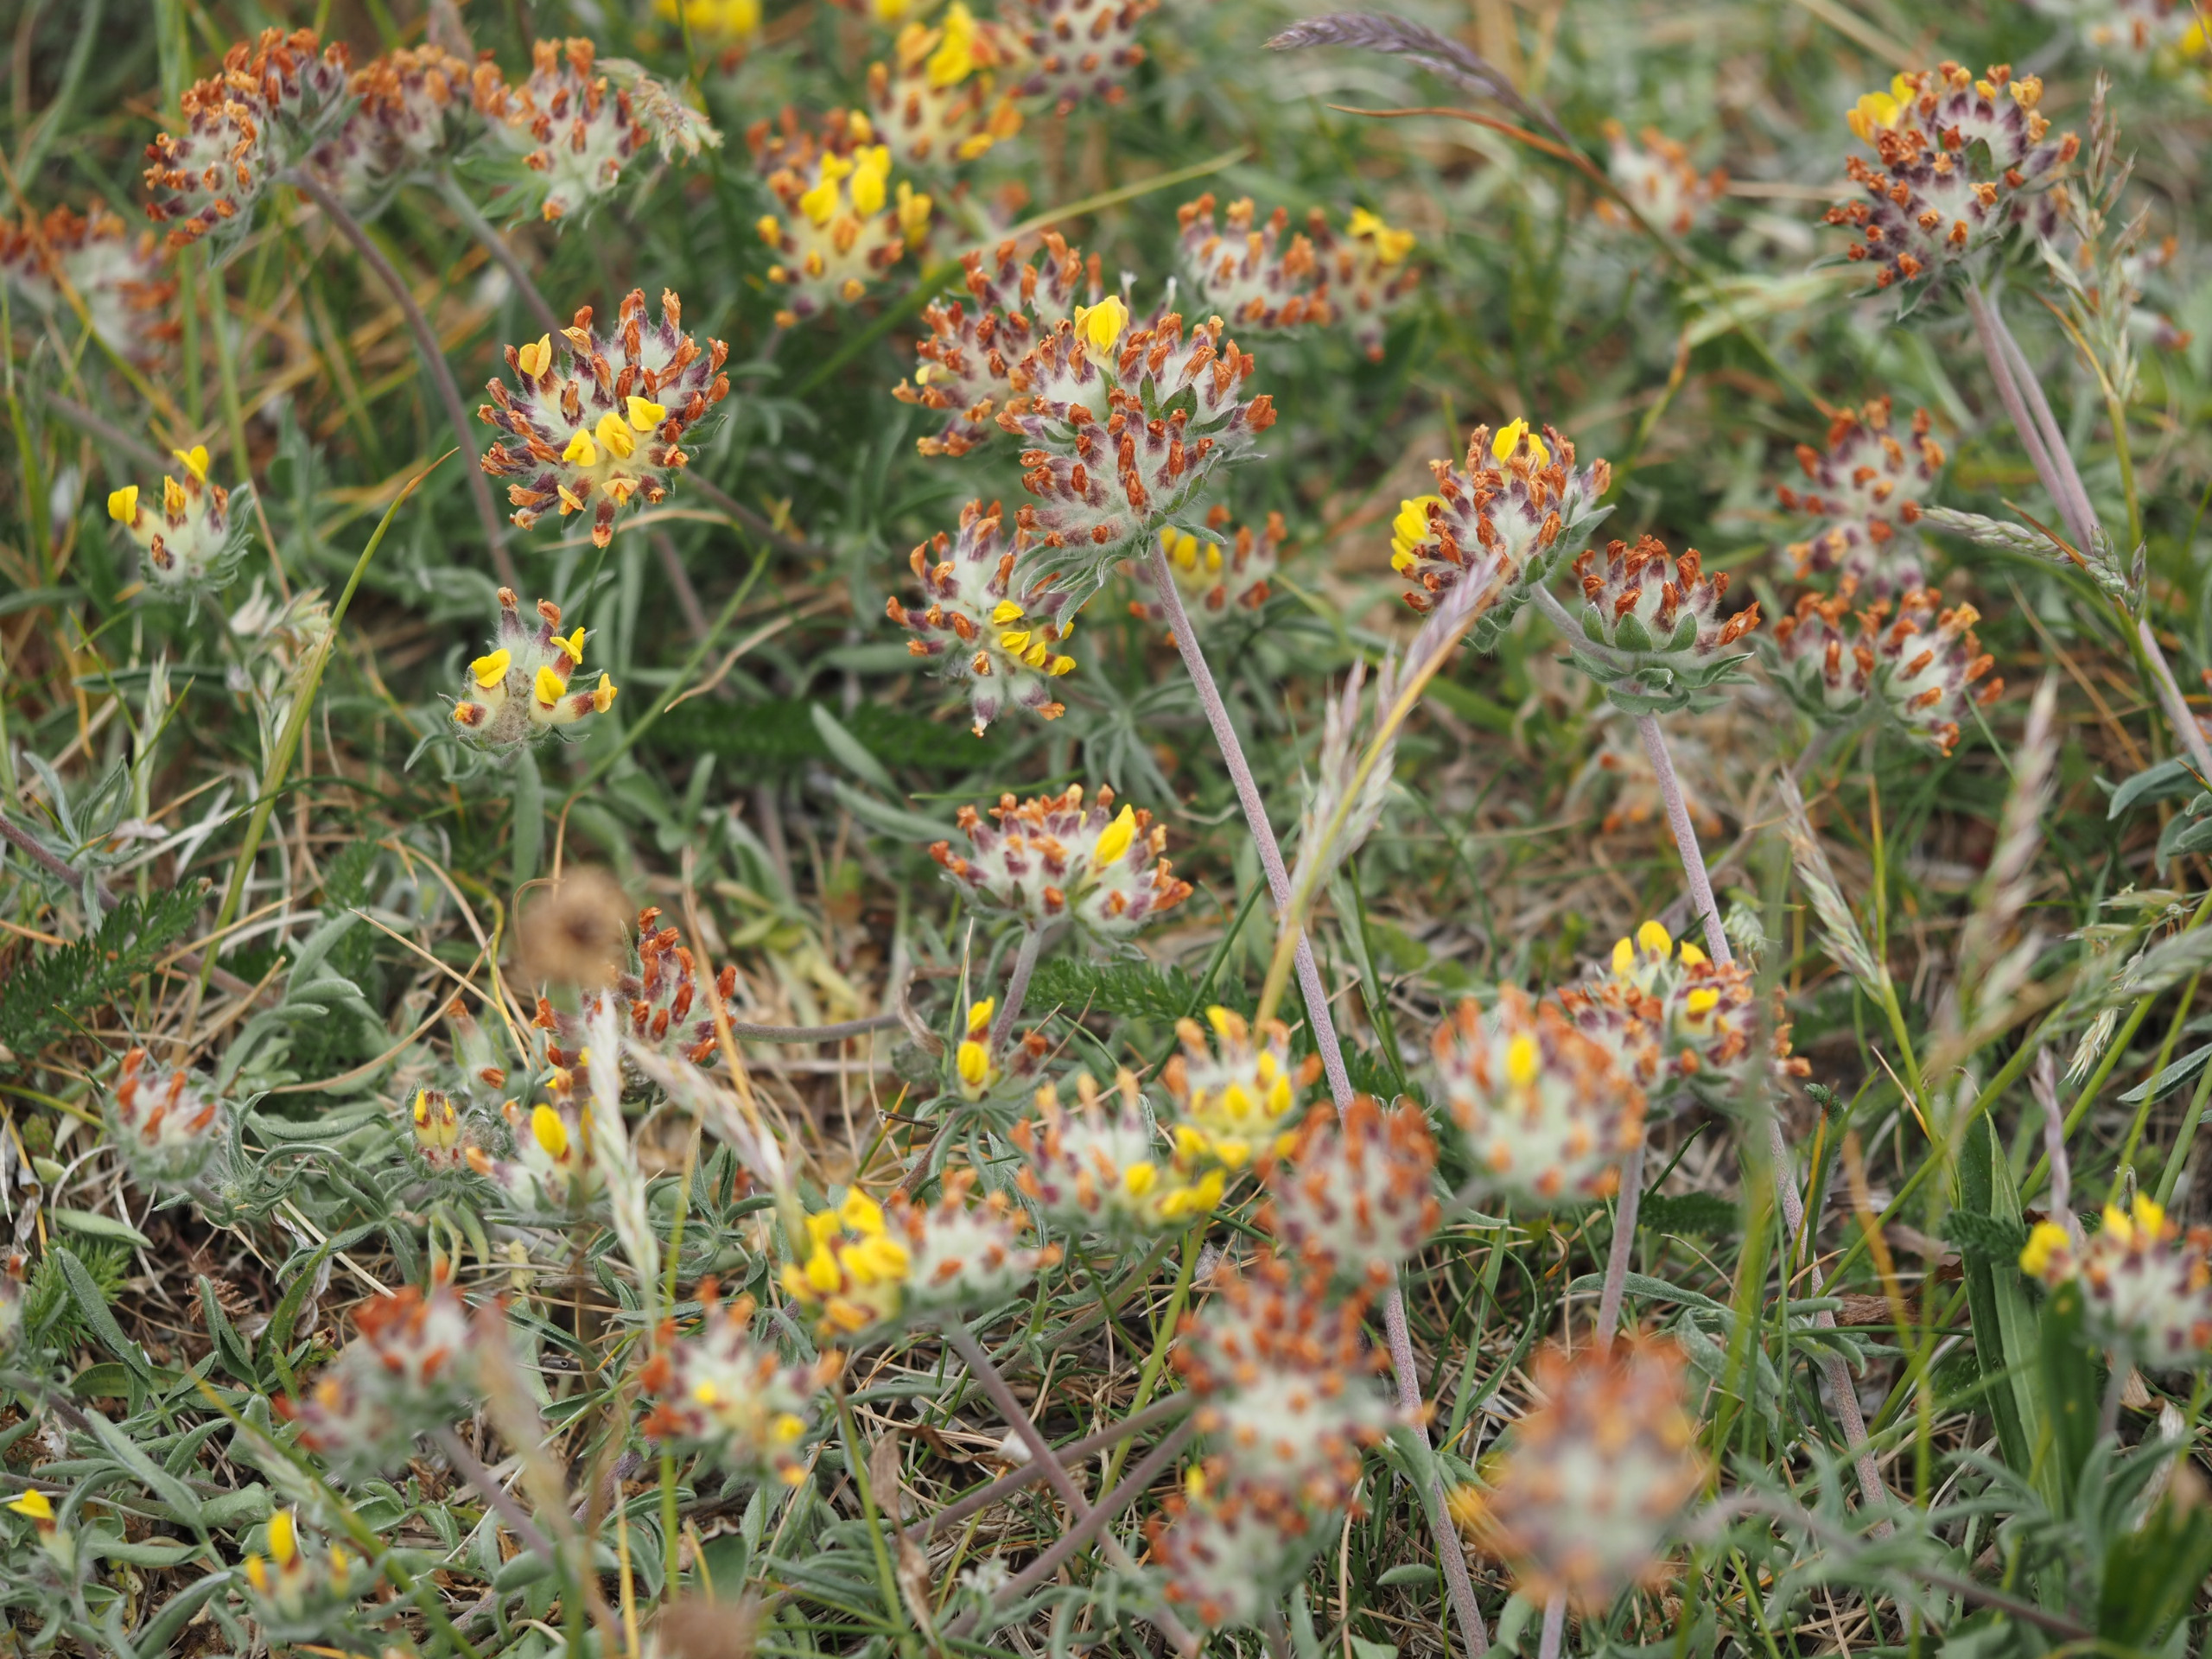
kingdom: Plantae
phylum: Tracheophyta
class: Magnoliopsida
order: Fabales
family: Fabaceae
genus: Anthyllis
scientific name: Anthyllis vulneraria
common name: Rundbælg
